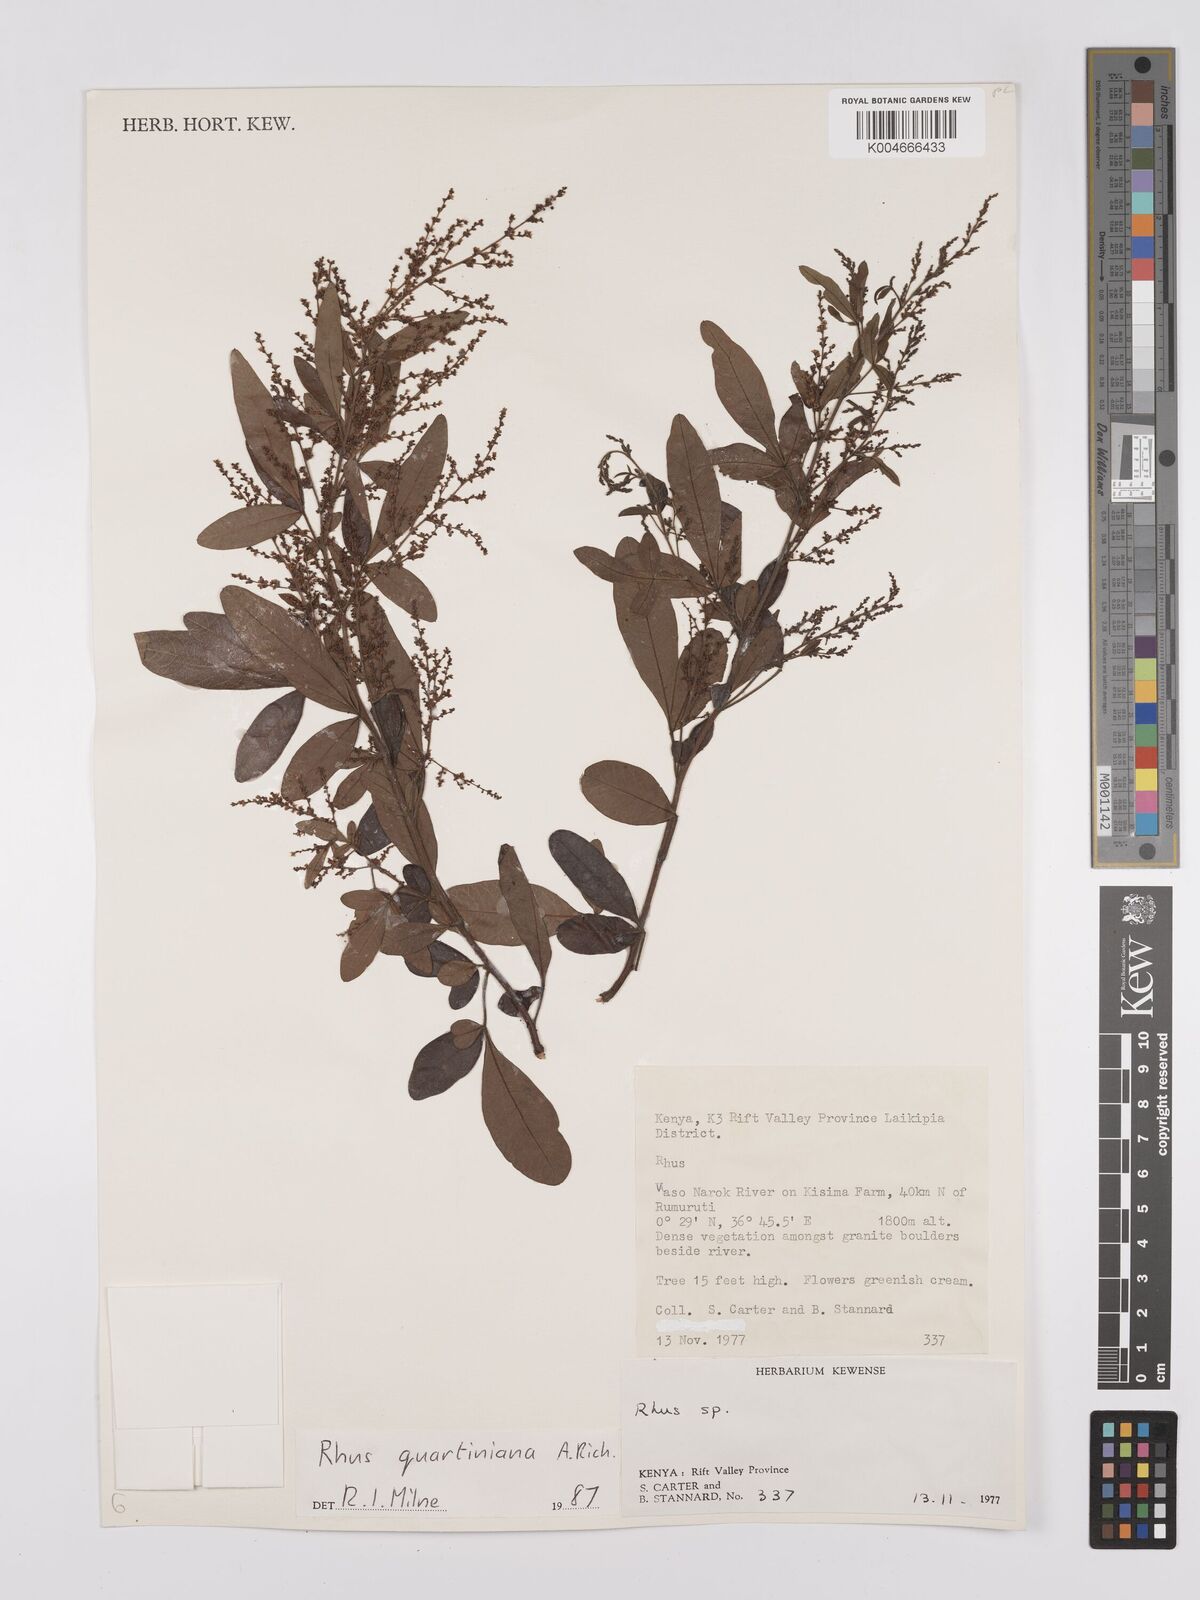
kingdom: Plantae
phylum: Tracheophyta
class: Magnoliopsida
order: Sapindales
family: Anacardiaceae
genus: Searsia
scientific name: Searsia quartiniana
